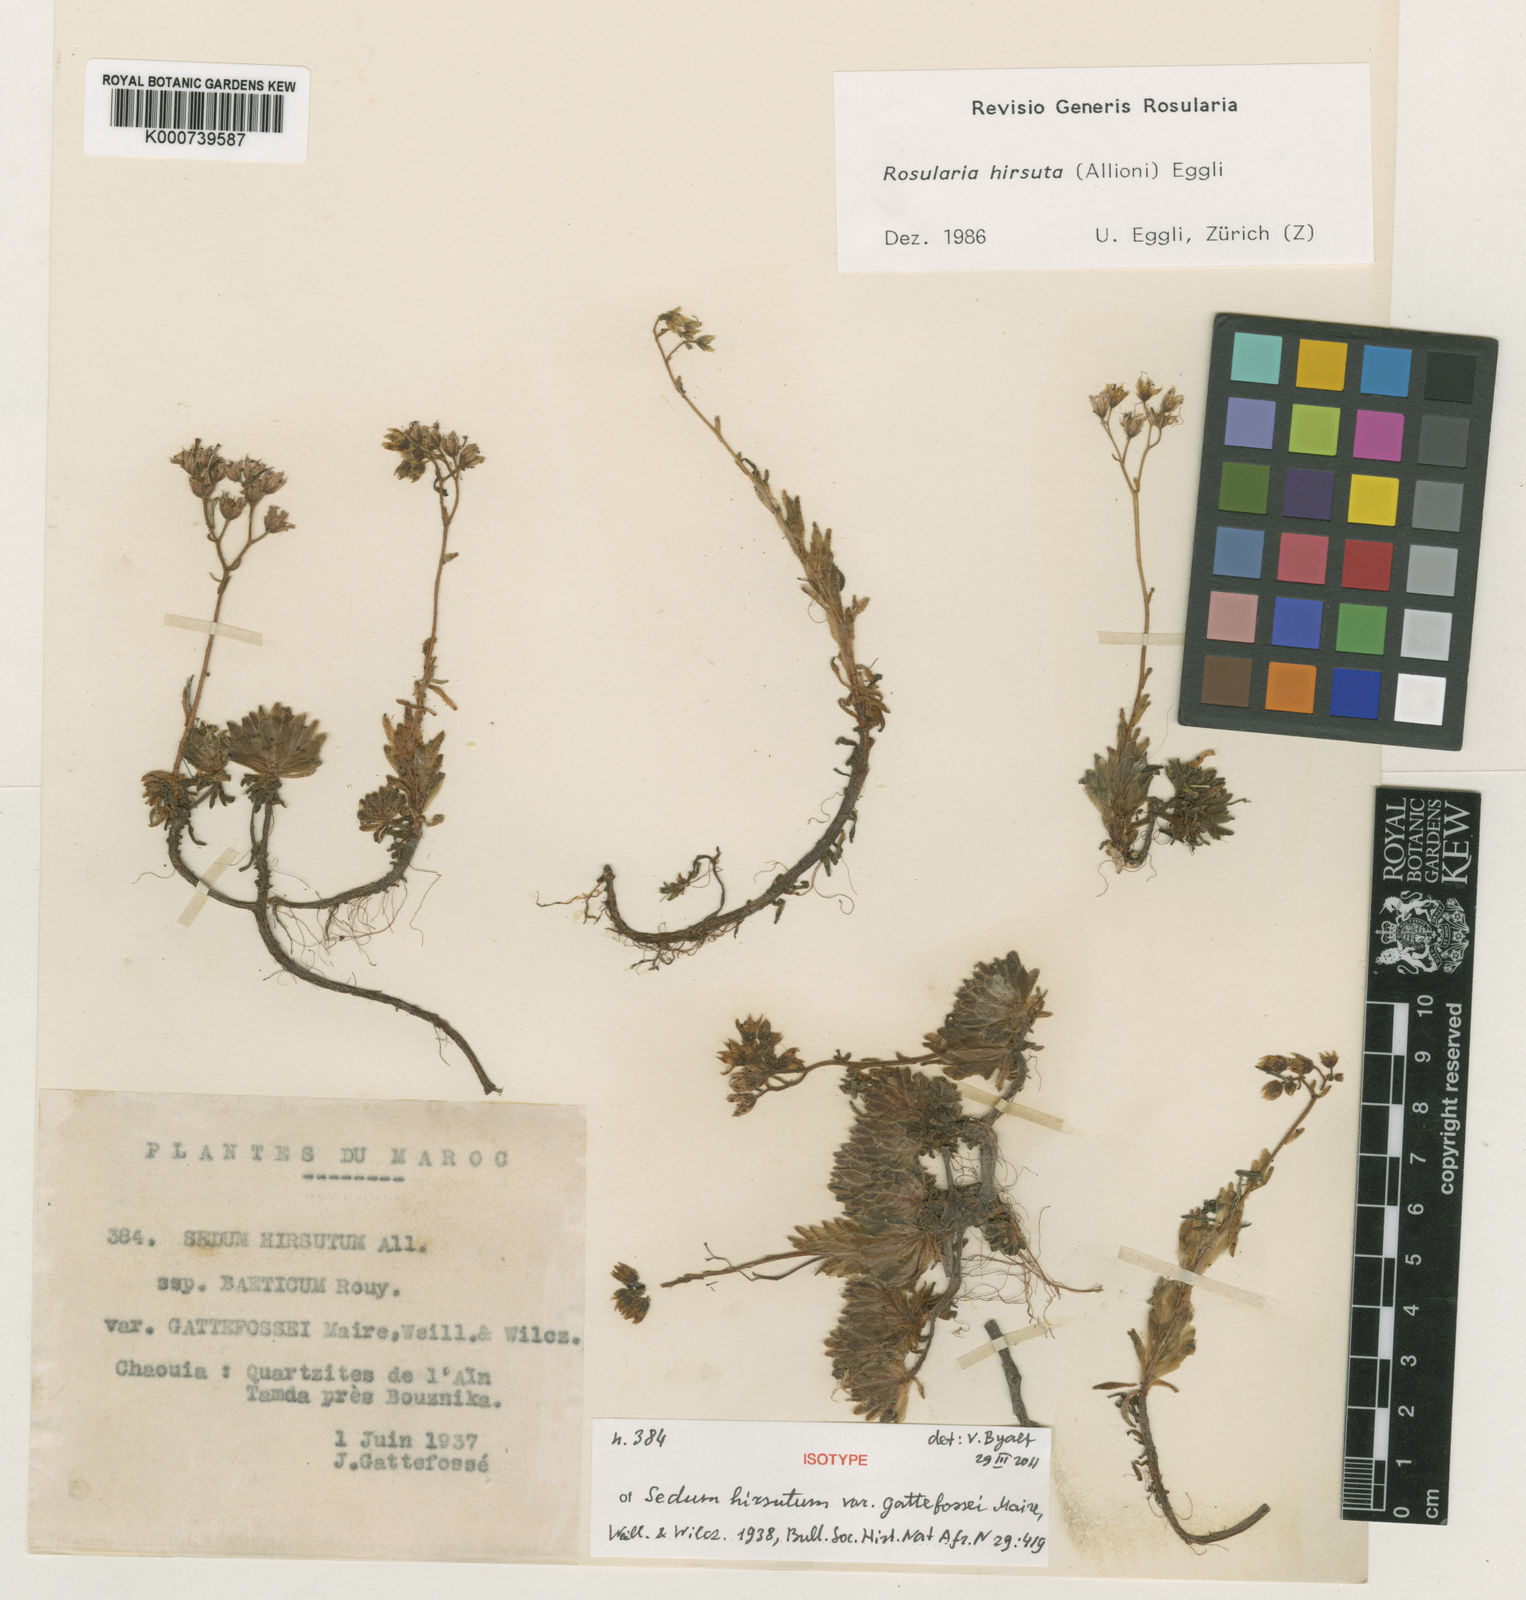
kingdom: Plantae
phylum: Tracheophyta
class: Magnoliopsida
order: Saxifragales
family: Crassulaceae
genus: Sedum
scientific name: Sedum hirsutum
